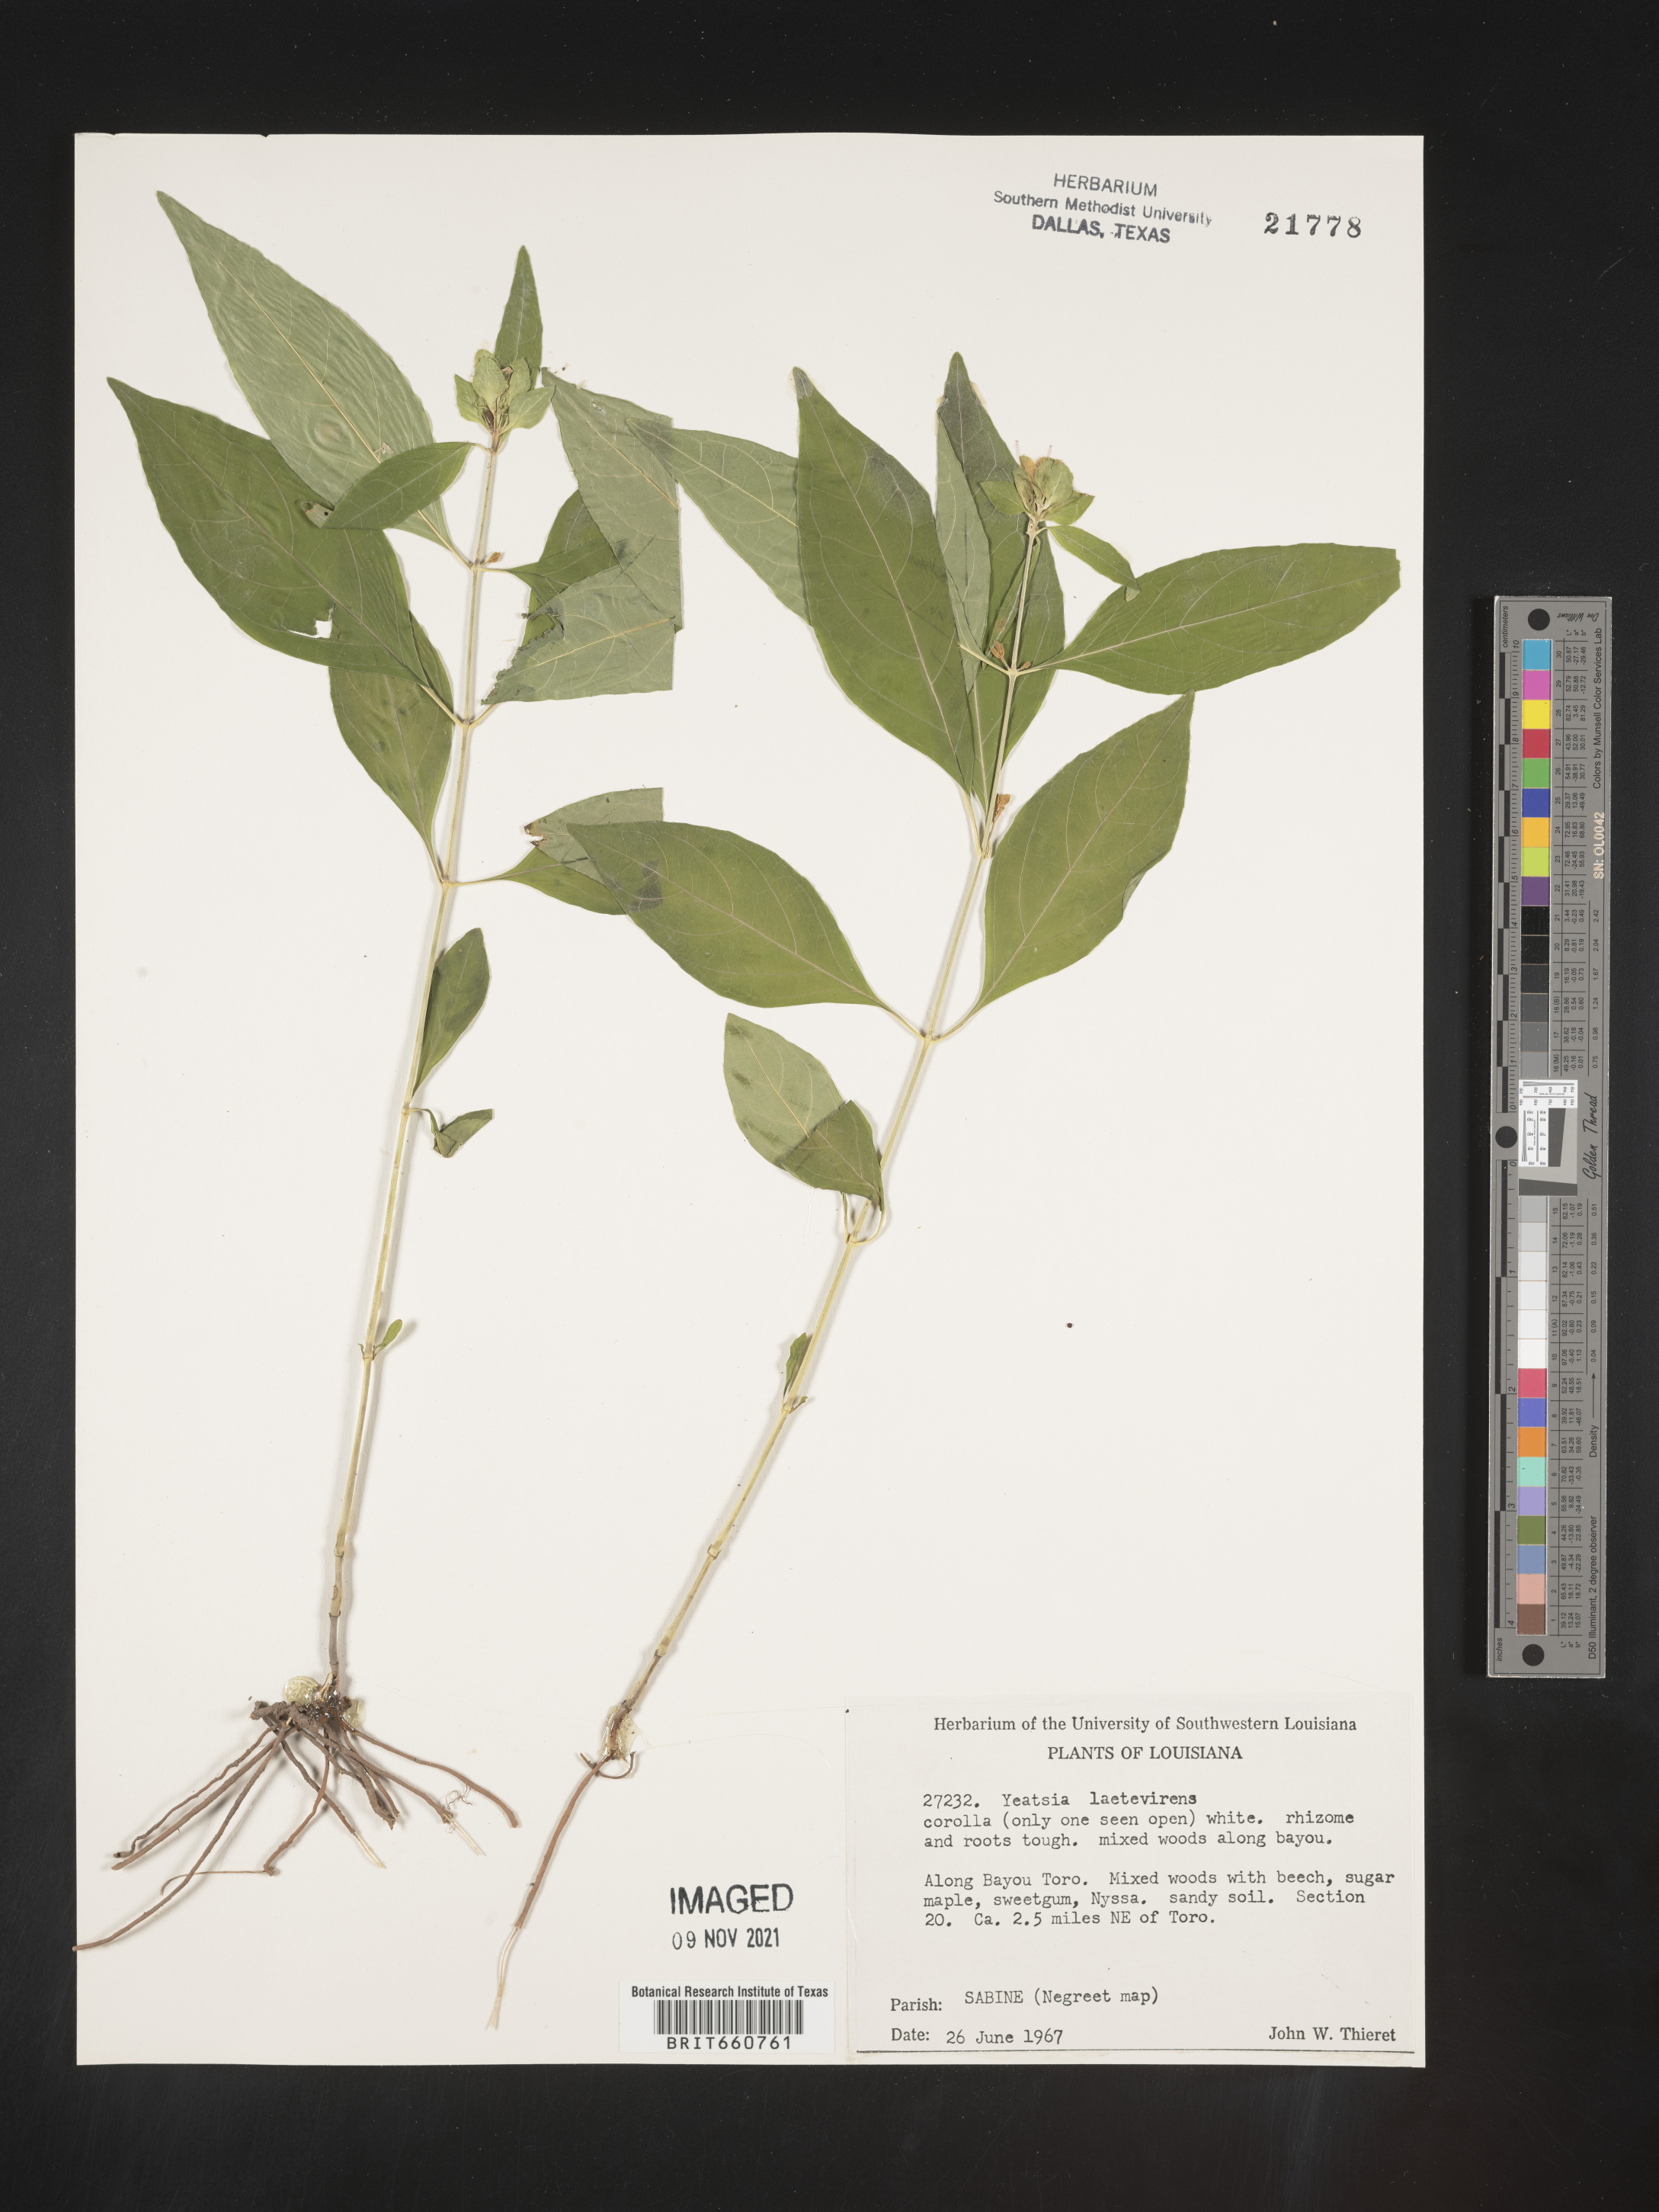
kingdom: Plantae
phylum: Tracheophyta
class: Magnoliopsida
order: Lamiales
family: Acanthaceae
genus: Yeatesia
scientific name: Yeatesia
